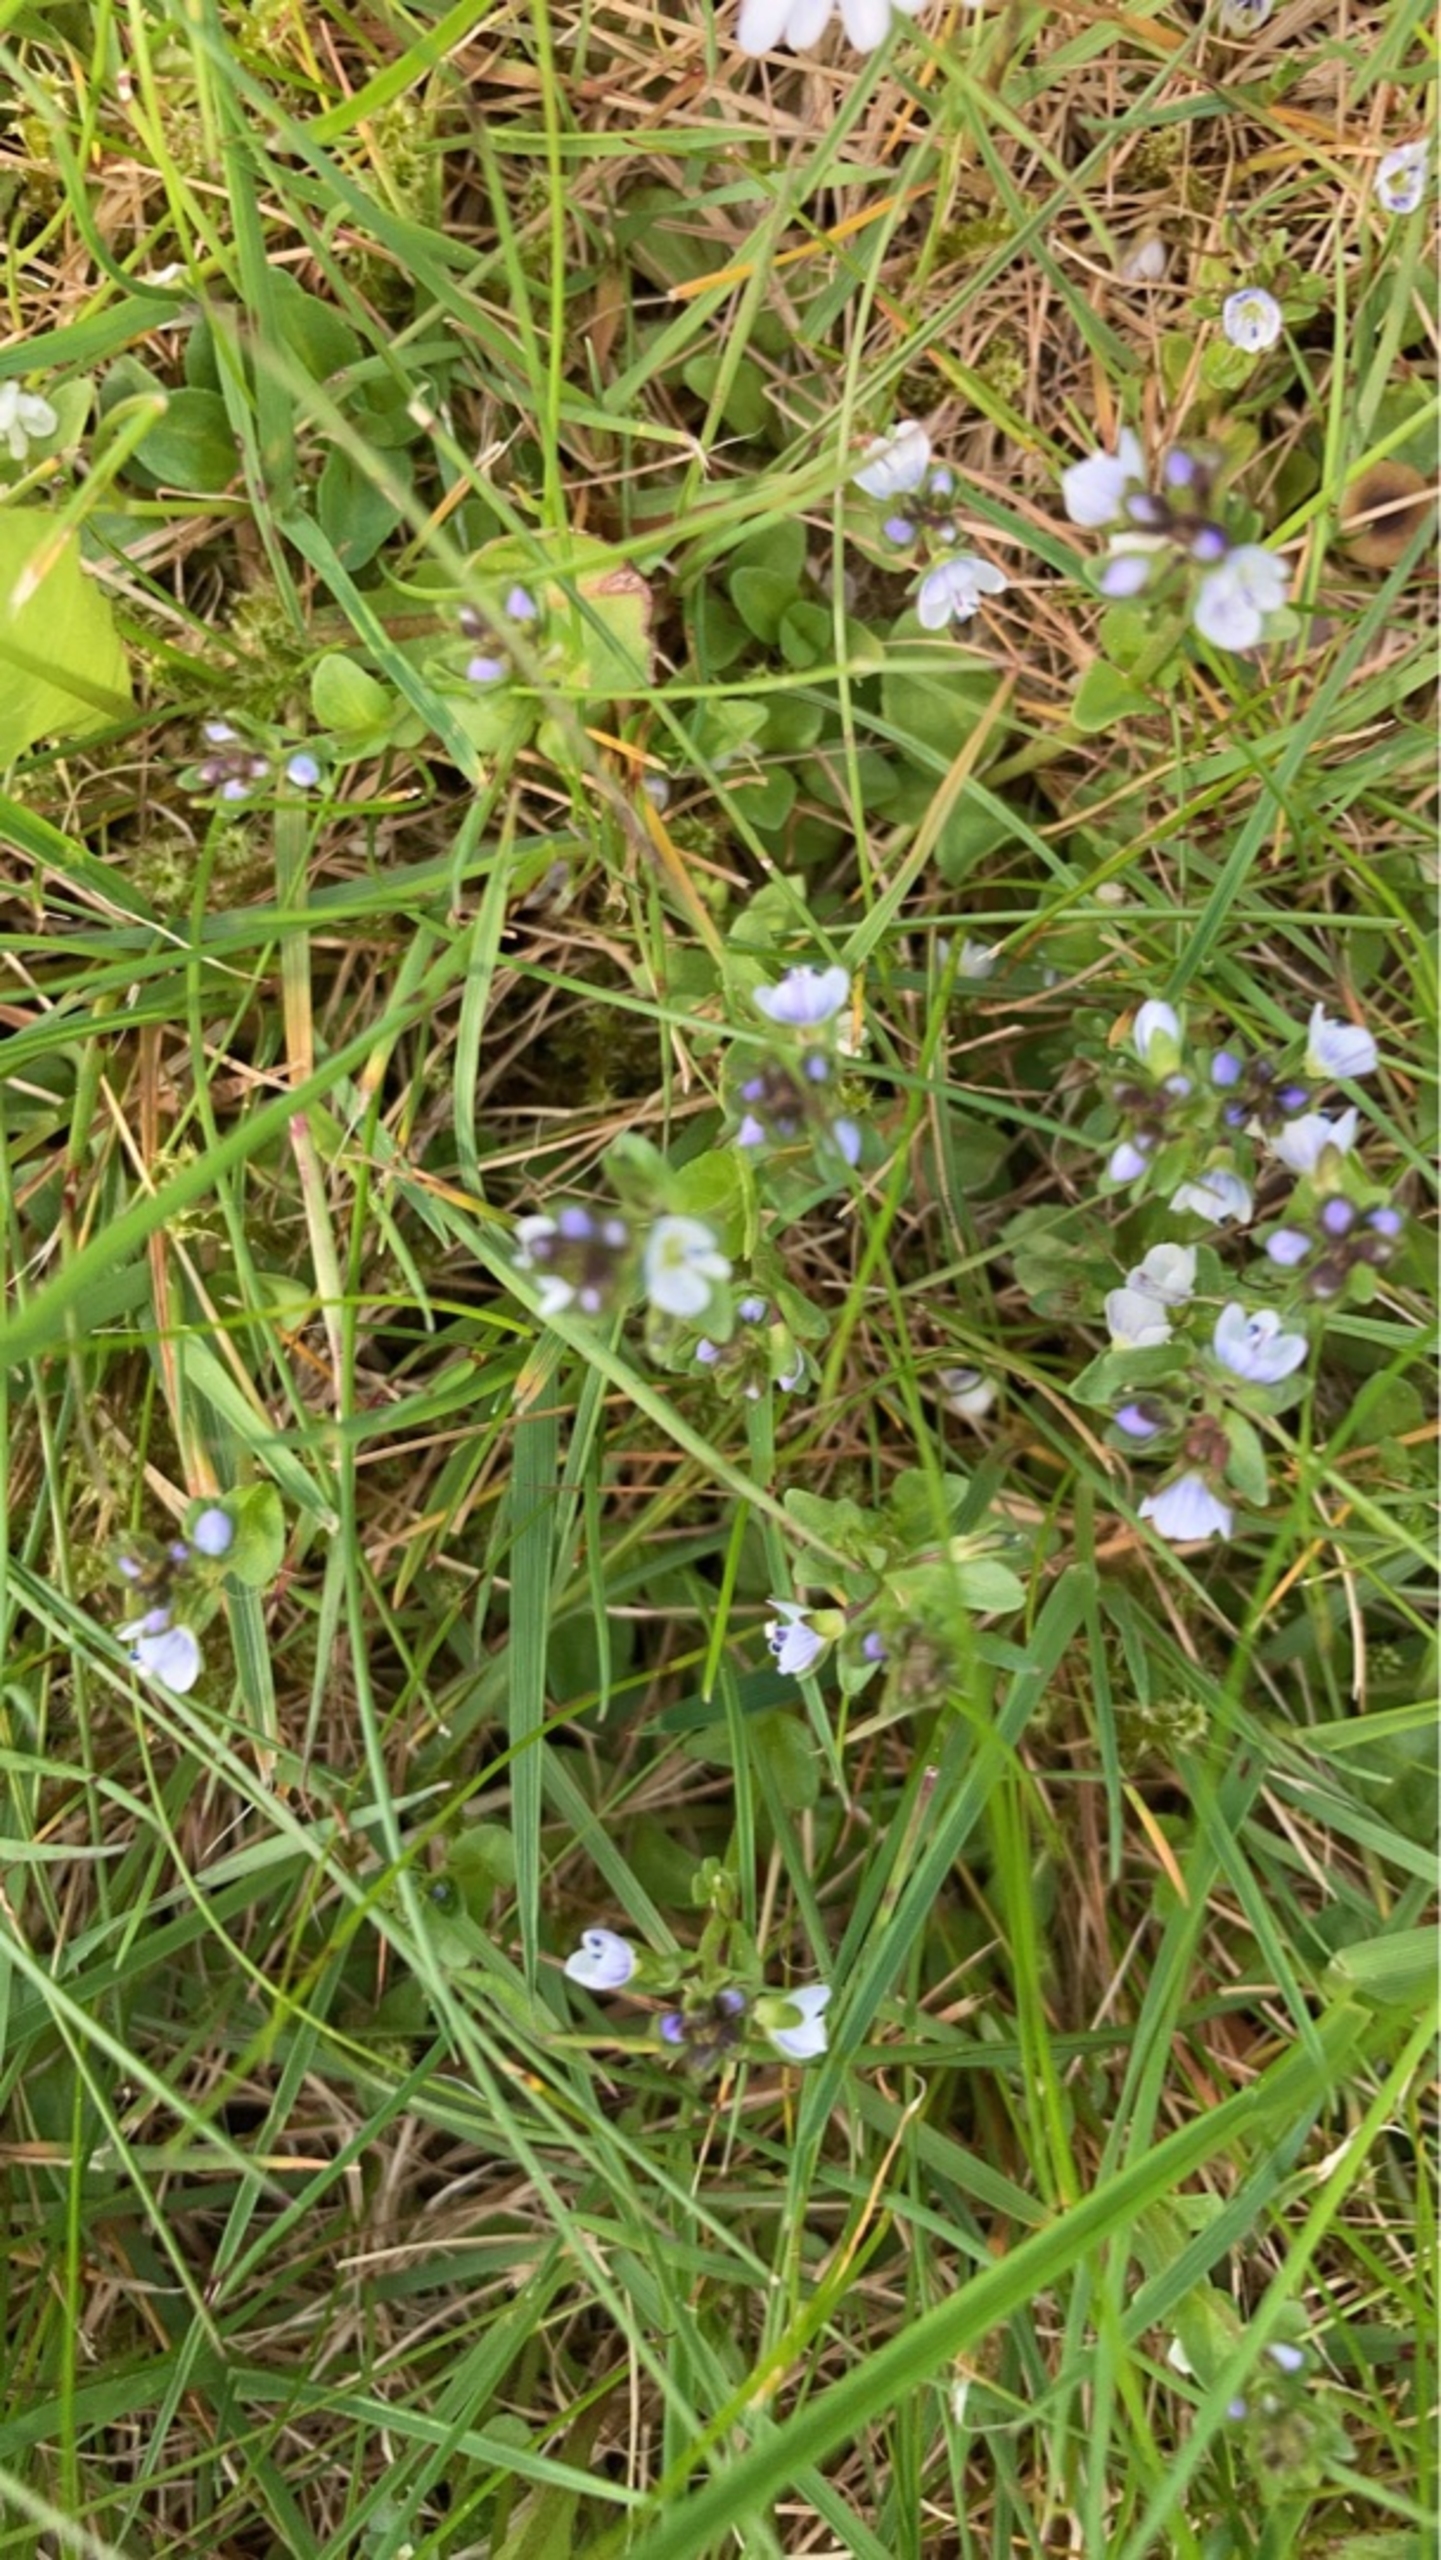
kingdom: Plantae
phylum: Tracheophyta
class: Magnoliopsida
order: Lamiales
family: Plantaginaceae
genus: Veronica
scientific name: Veronica serpyllifolia
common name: Glat ærenpris
